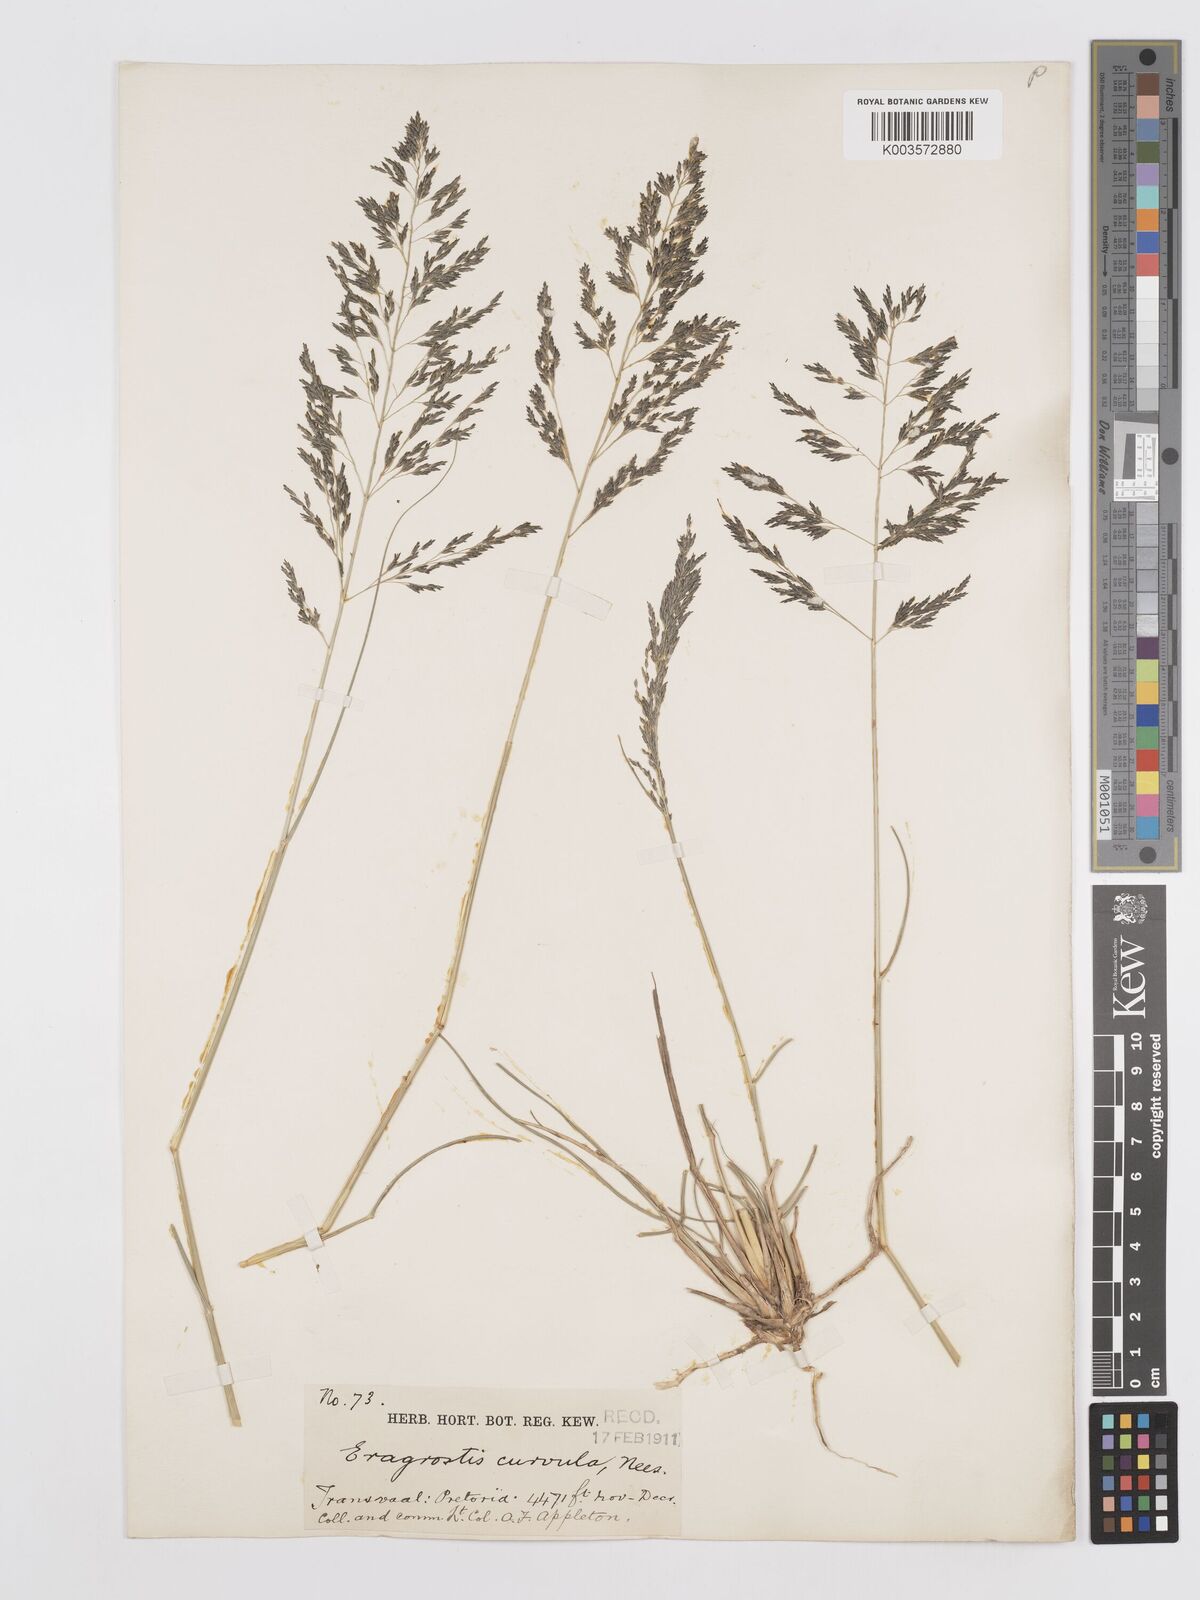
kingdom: Plantae
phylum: Tracheophyta
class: Liliopsida
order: Poales
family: Poaceae
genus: Eragrostis
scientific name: Eragrostis curvula
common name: African love-grass
